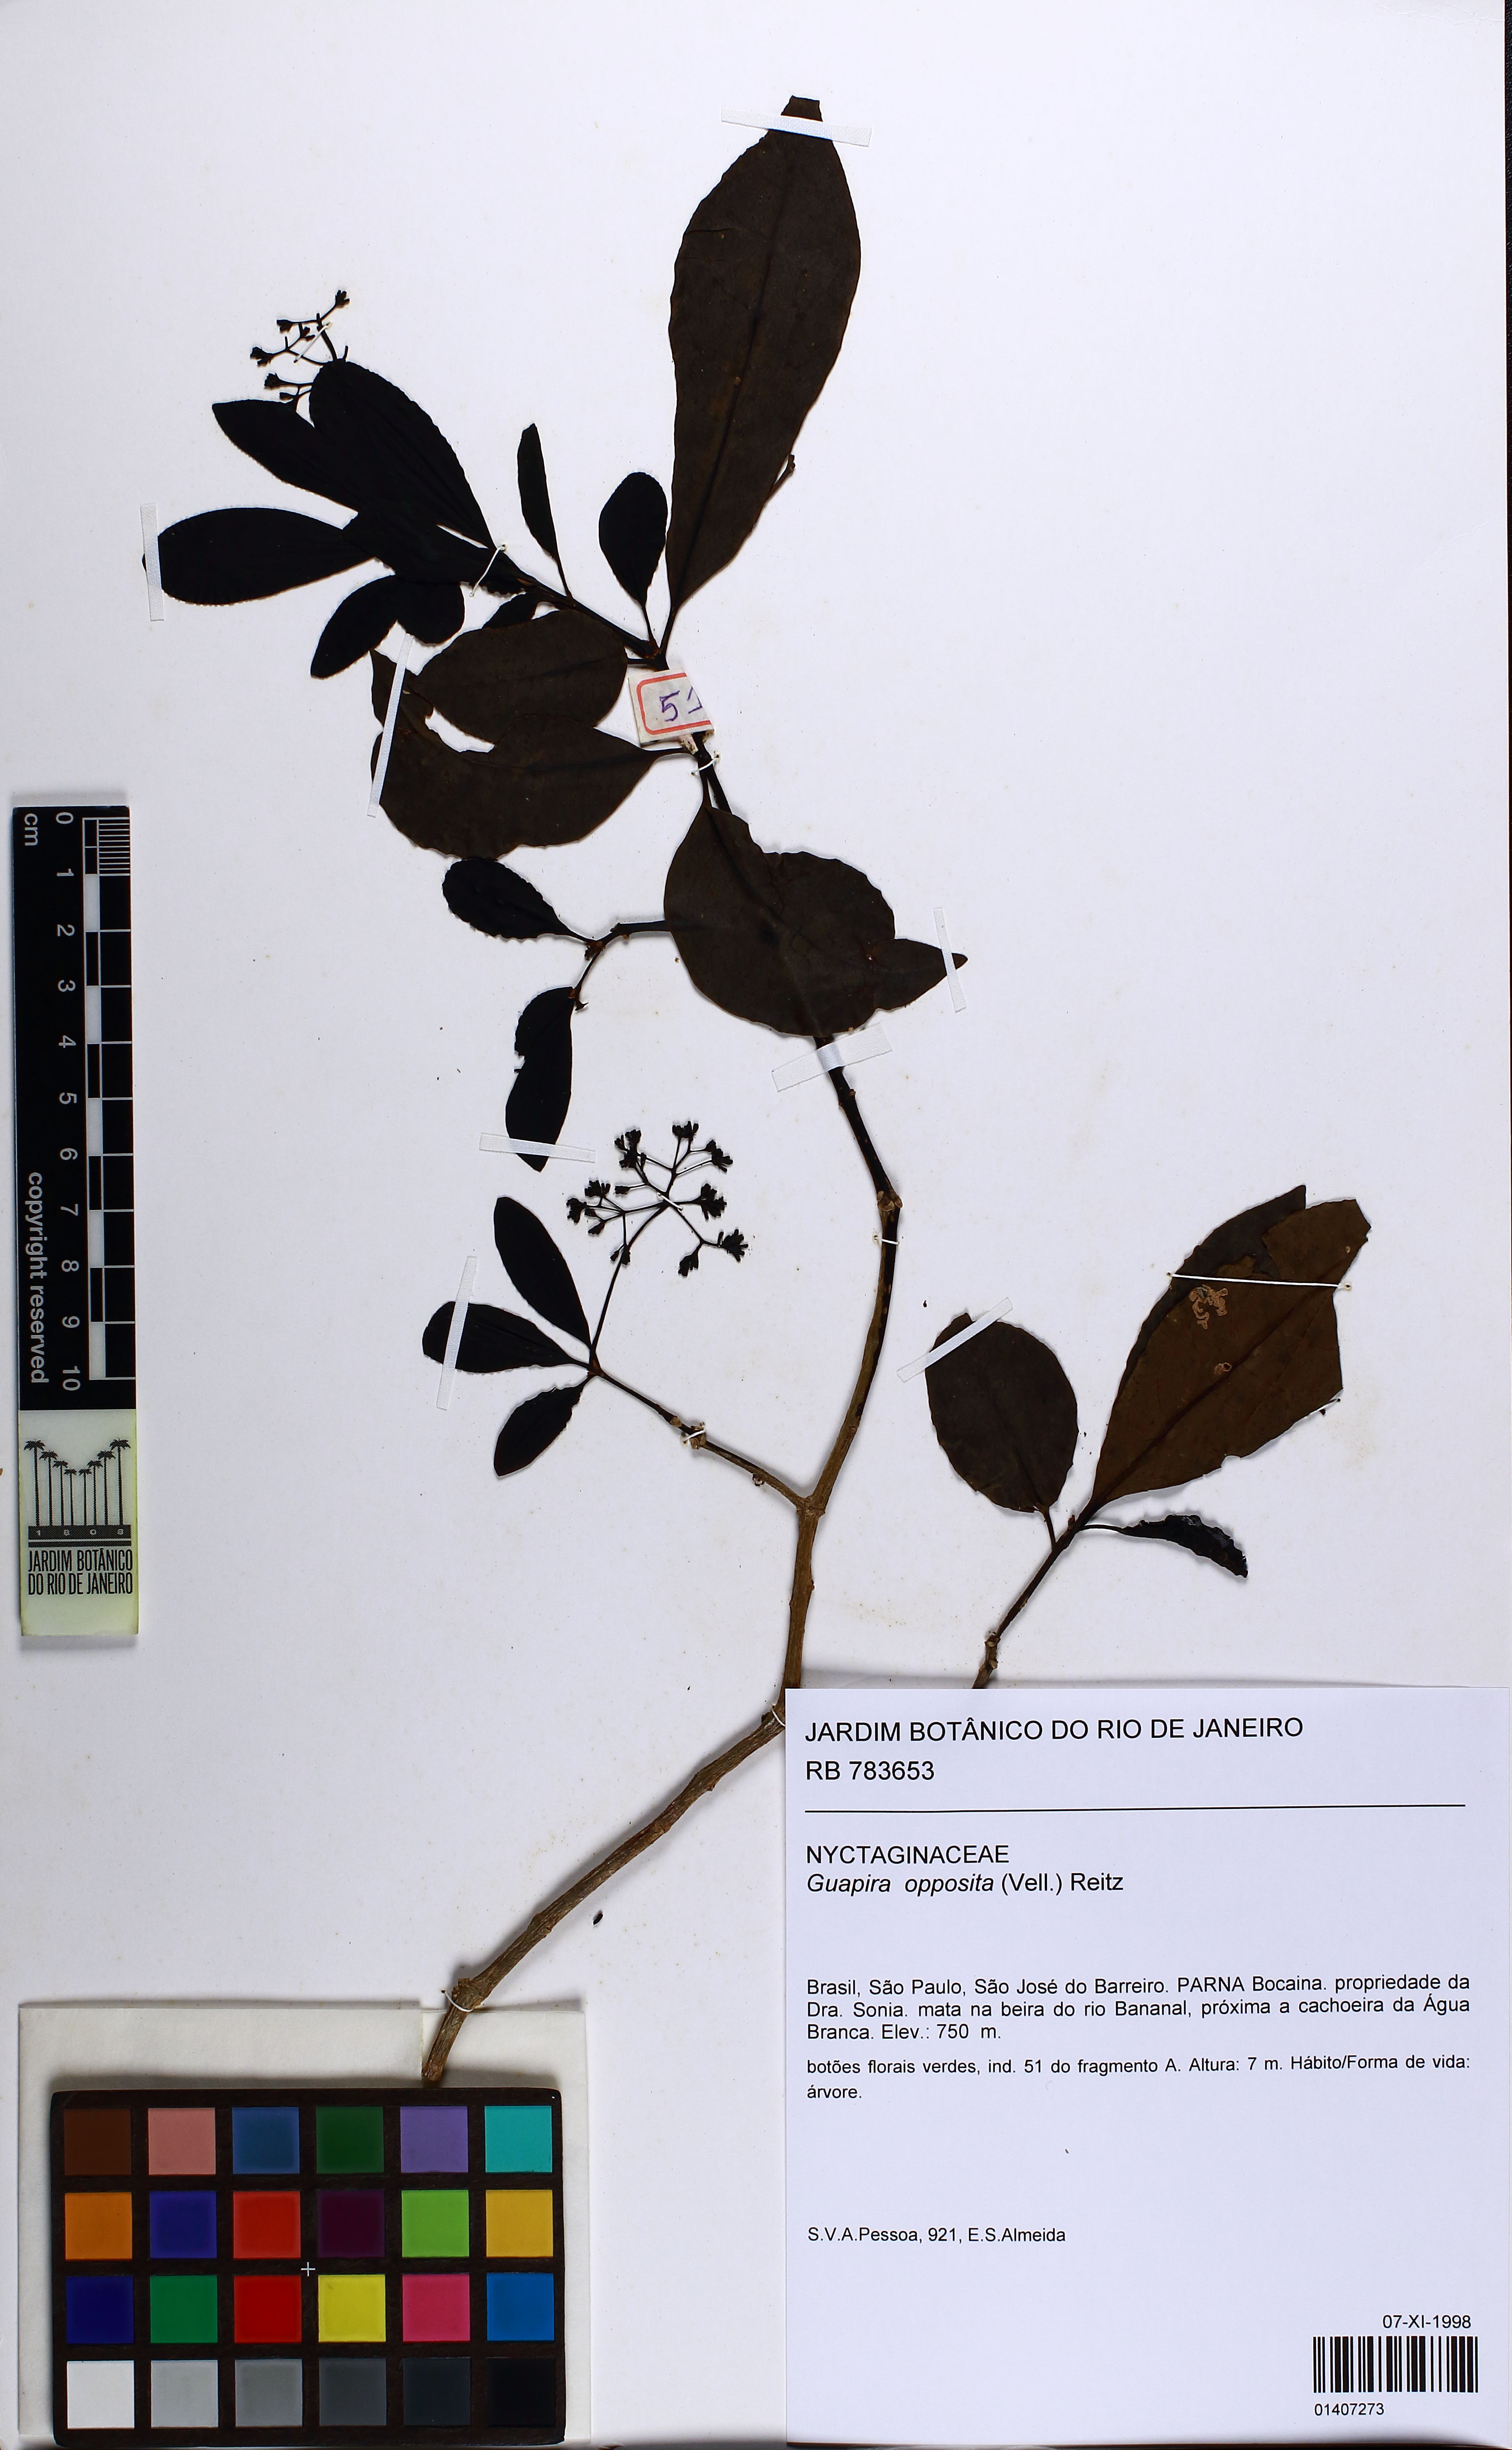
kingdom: Plantae
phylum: Tracheophyta
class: Magnoliopsida
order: Caryophyllales
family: Nyctaginaceae
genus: Guapira
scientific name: Guapira opposita
